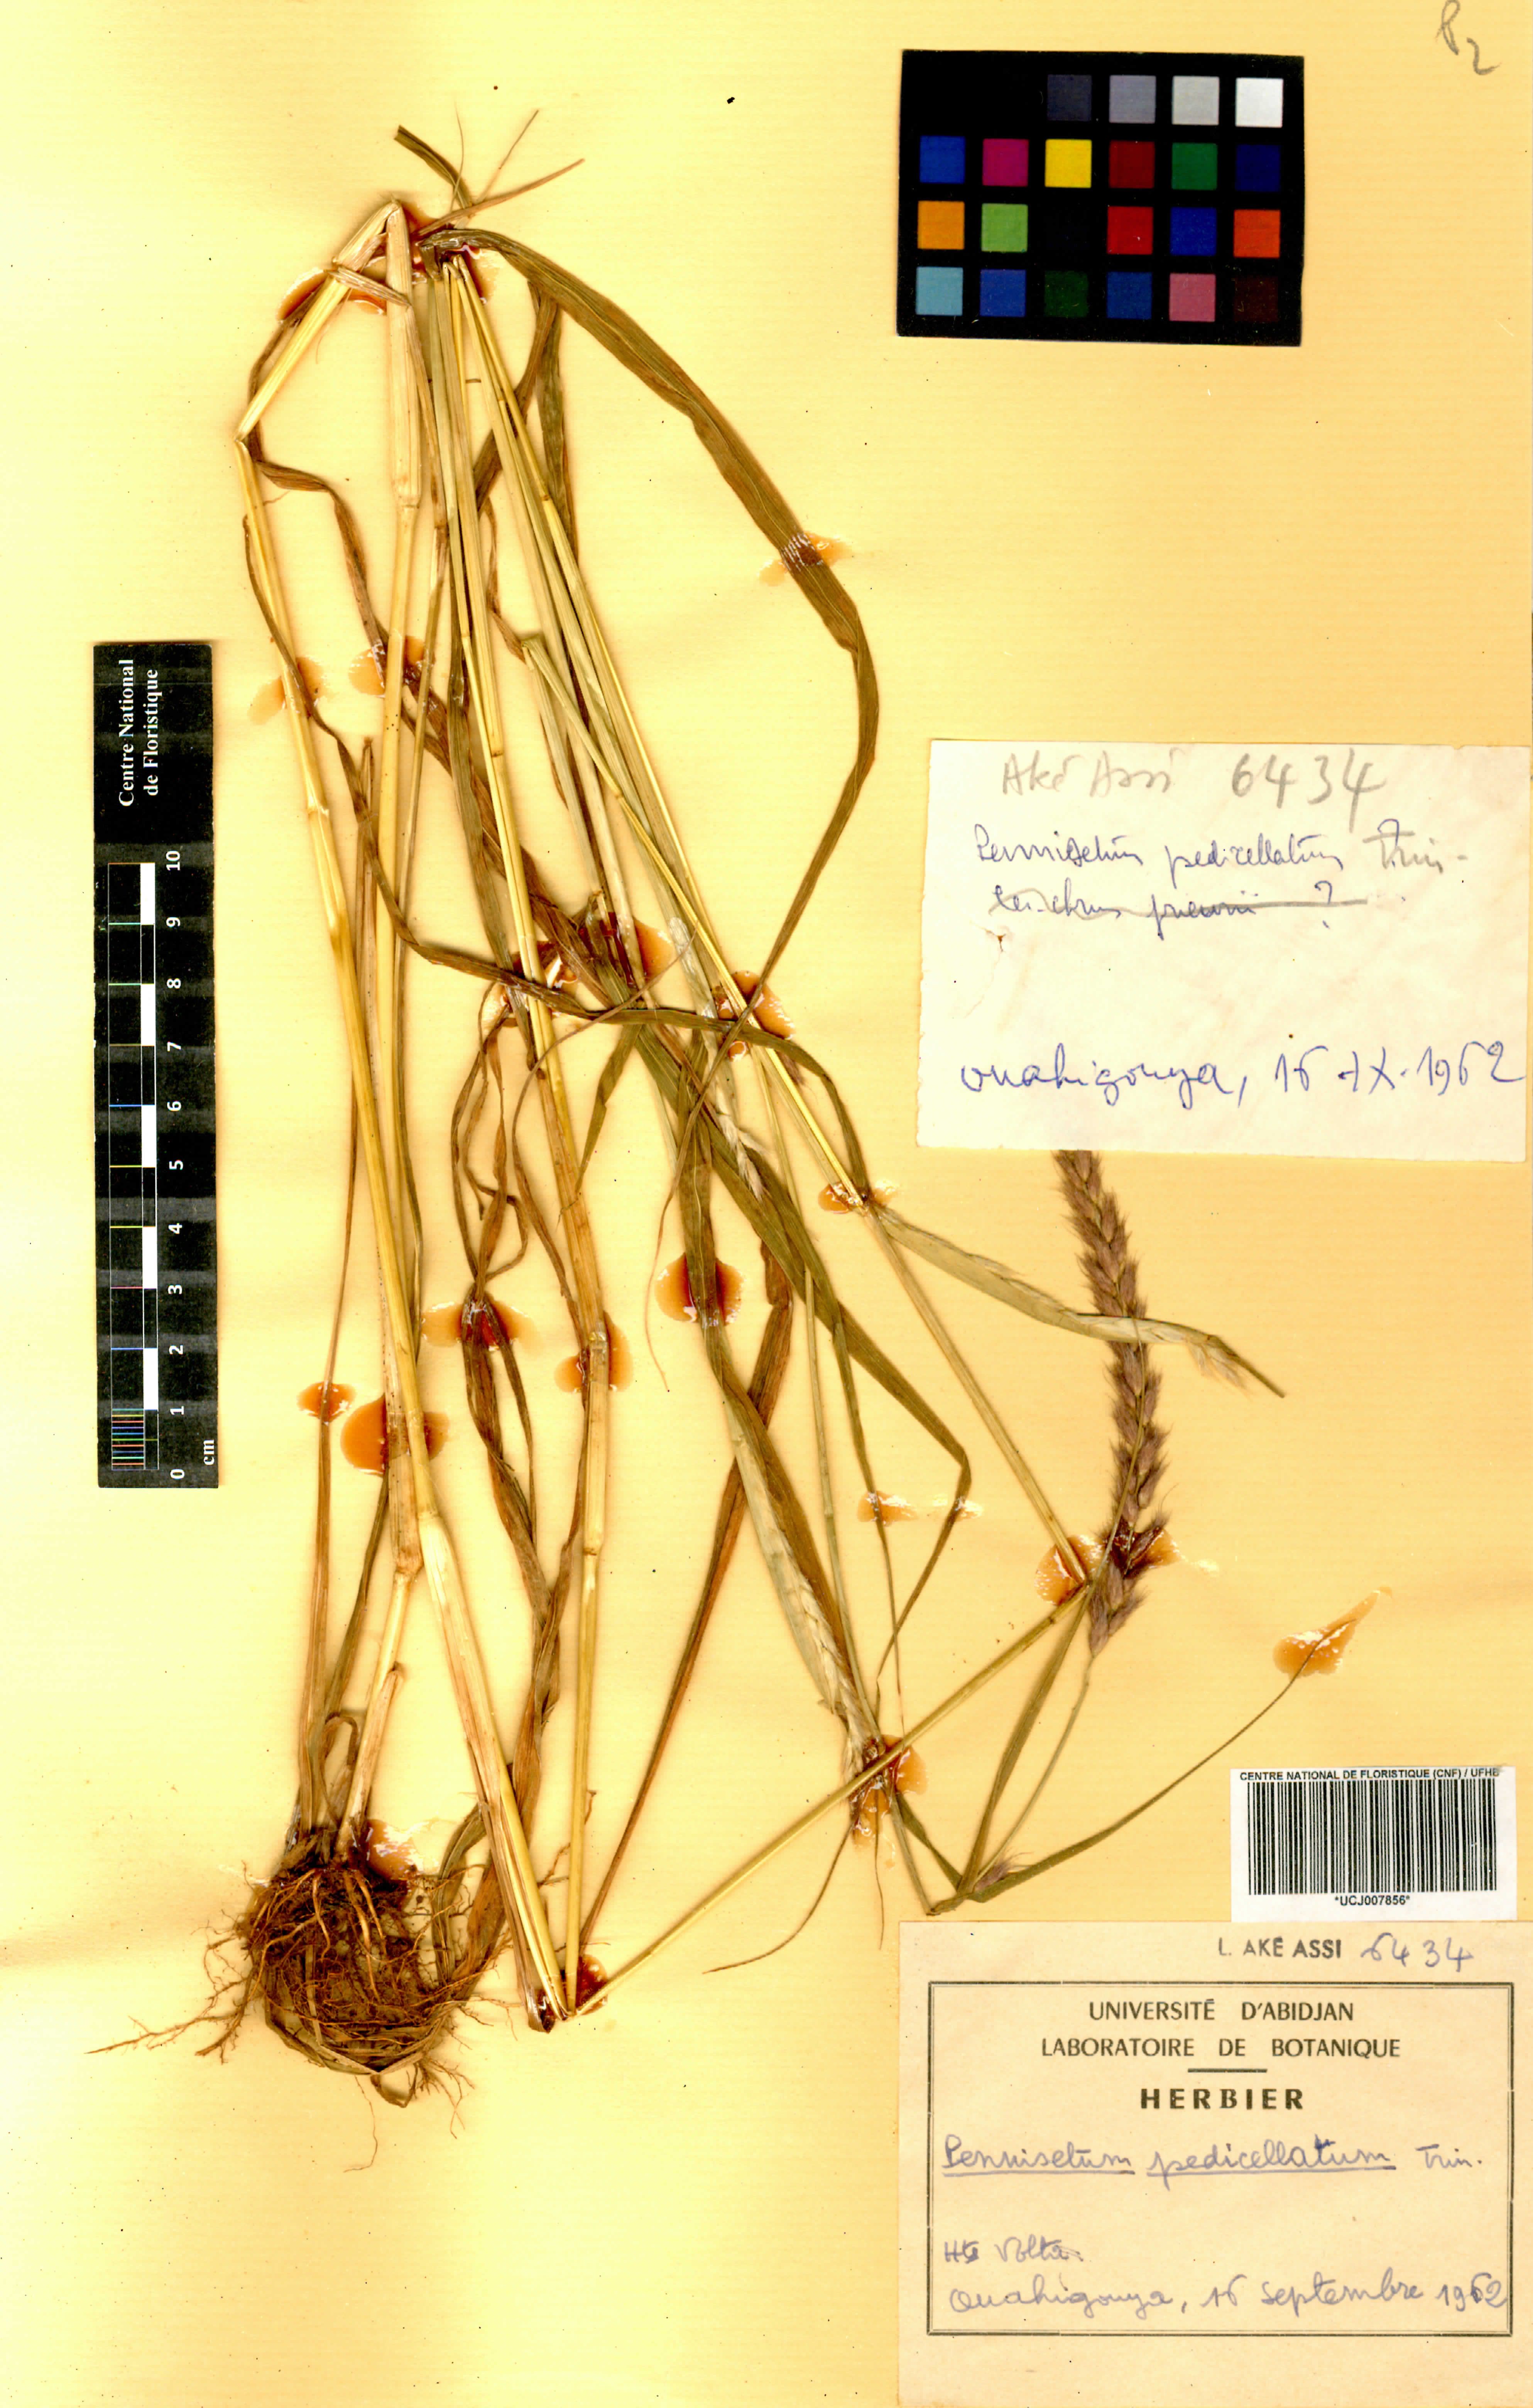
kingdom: Plantae
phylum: Tracheophyta
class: Liliopsida
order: Poales
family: Poaceae
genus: Cenchrus
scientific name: Cenchrus pedicellatus
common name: Hairy fountain grass
